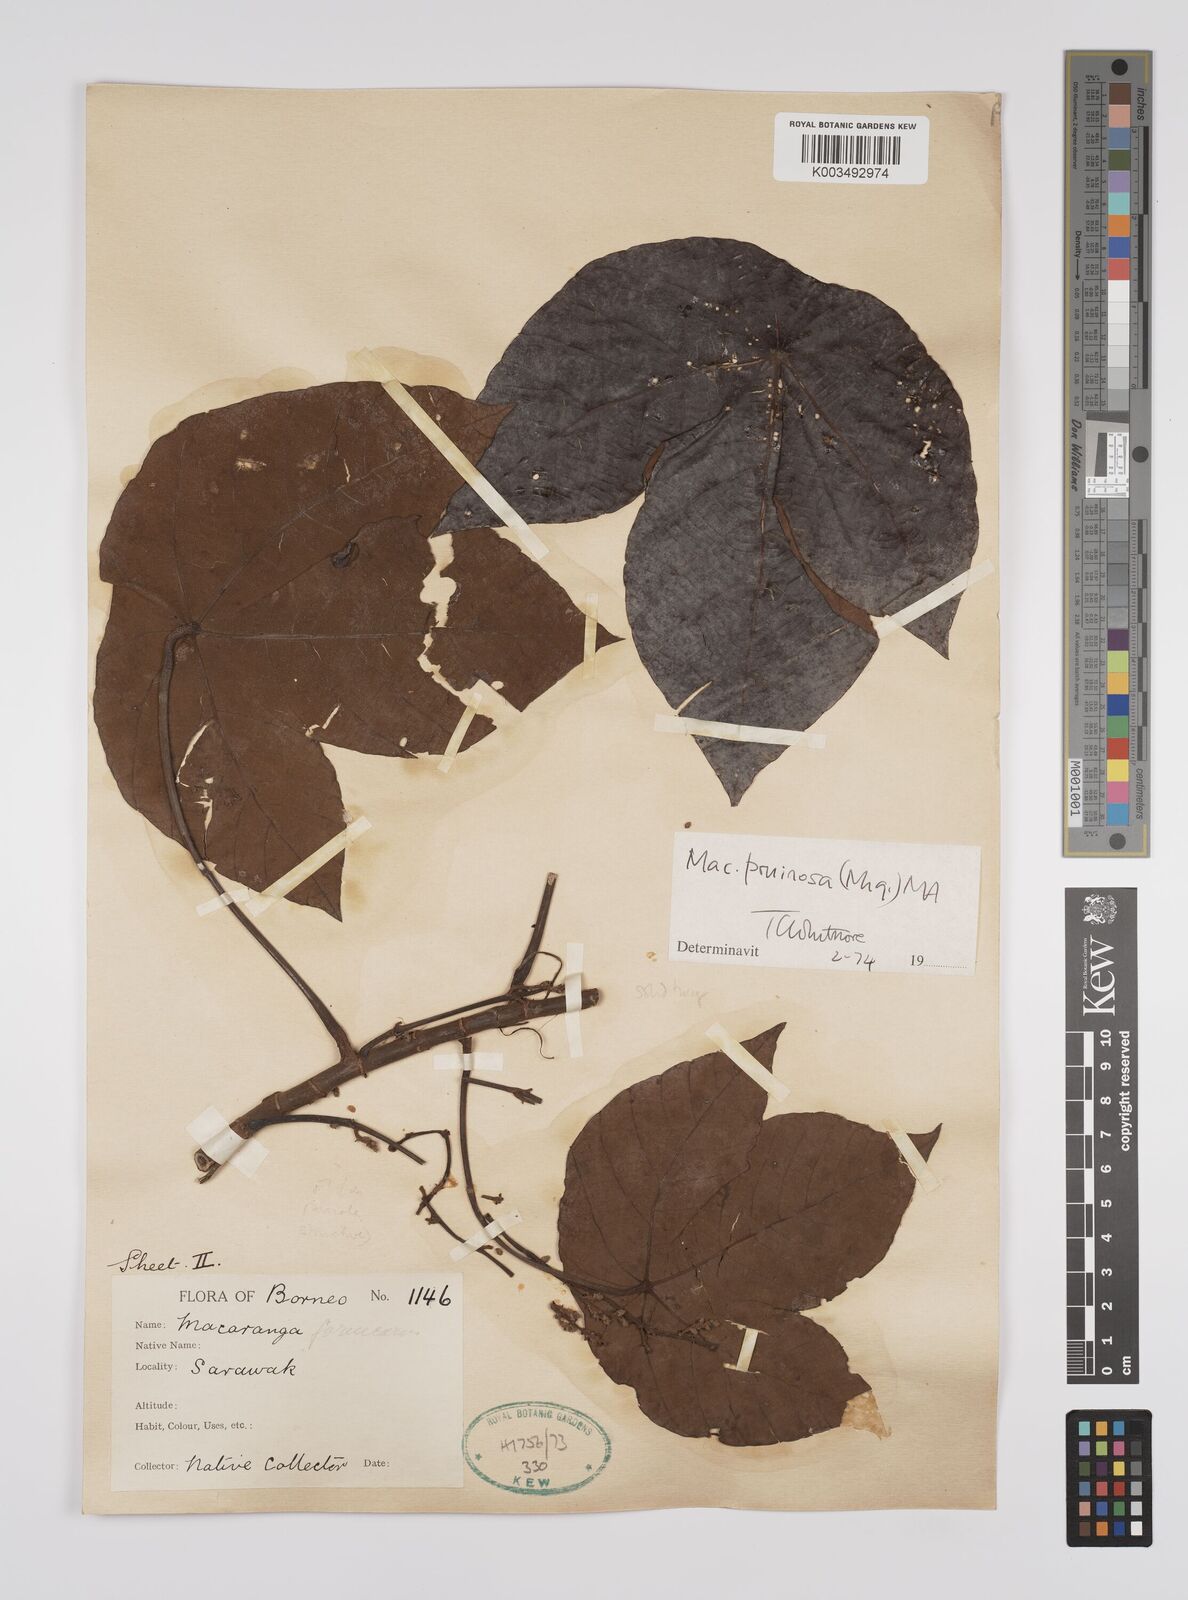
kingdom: Plantae
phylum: Tracheophyta
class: Magnoliopsida
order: Malpighiales
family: Euphorbiaceae
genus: Macaranga
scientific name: Macaranga pruinosa
